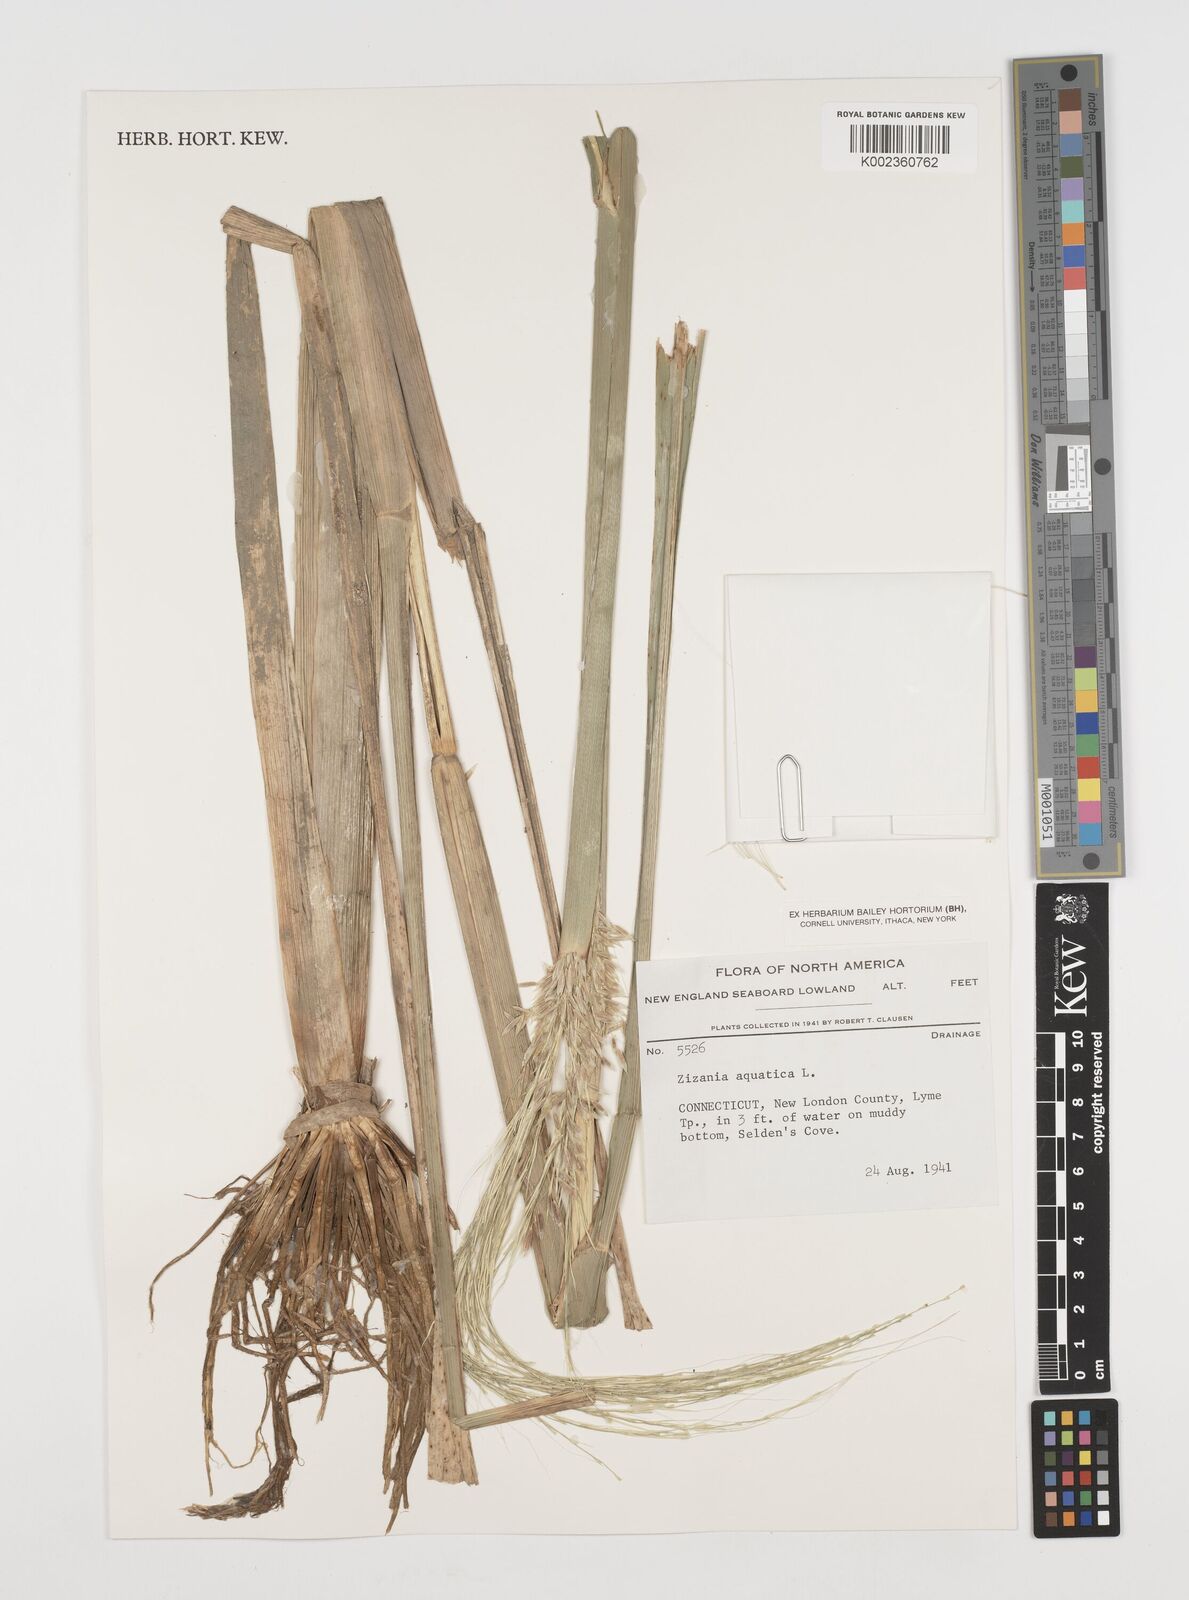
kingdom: Plantae
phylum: Tracheophyta
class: Liliopsida
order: Poales
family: Poaceae
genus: Zizania
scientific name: Zizania aquatica
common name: Annual wildrice
